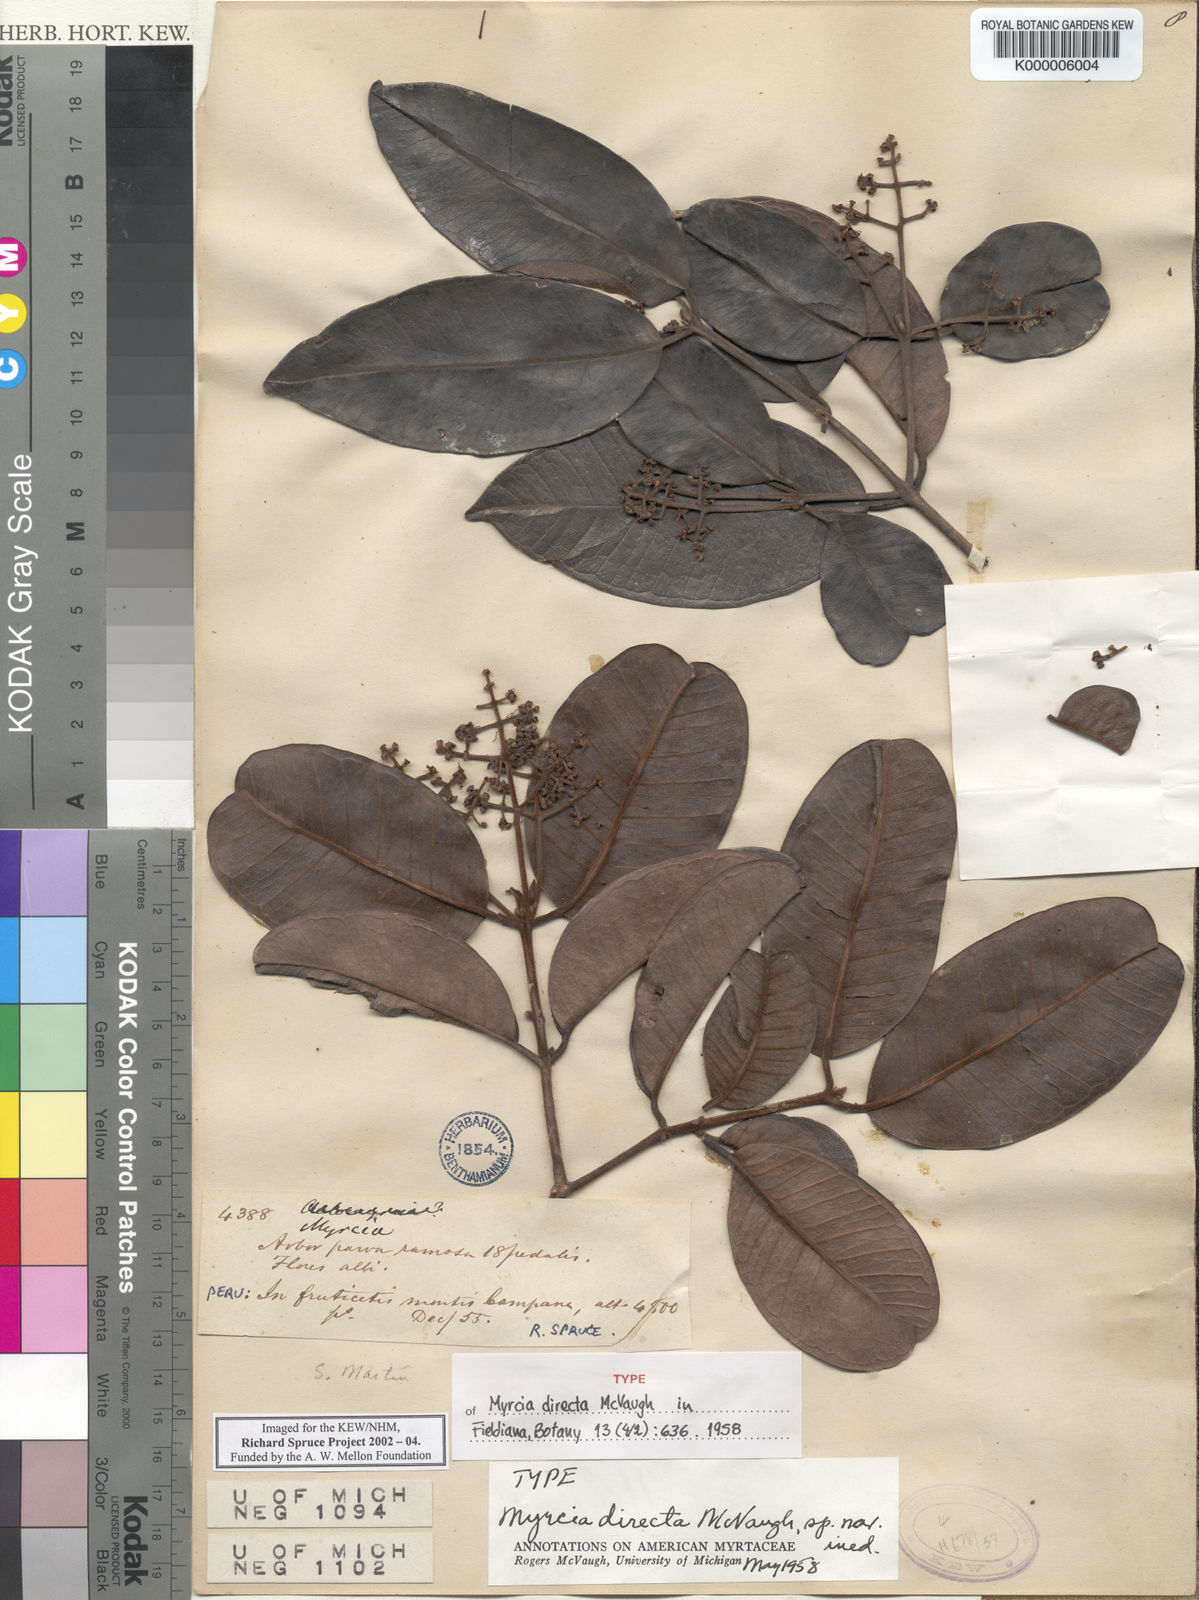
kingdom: Plantae
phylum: Tracheophyta
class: Magnoliopsida
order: Myrtales
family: Myrtaceae
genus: Myrcia
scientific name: Myrcia directa
